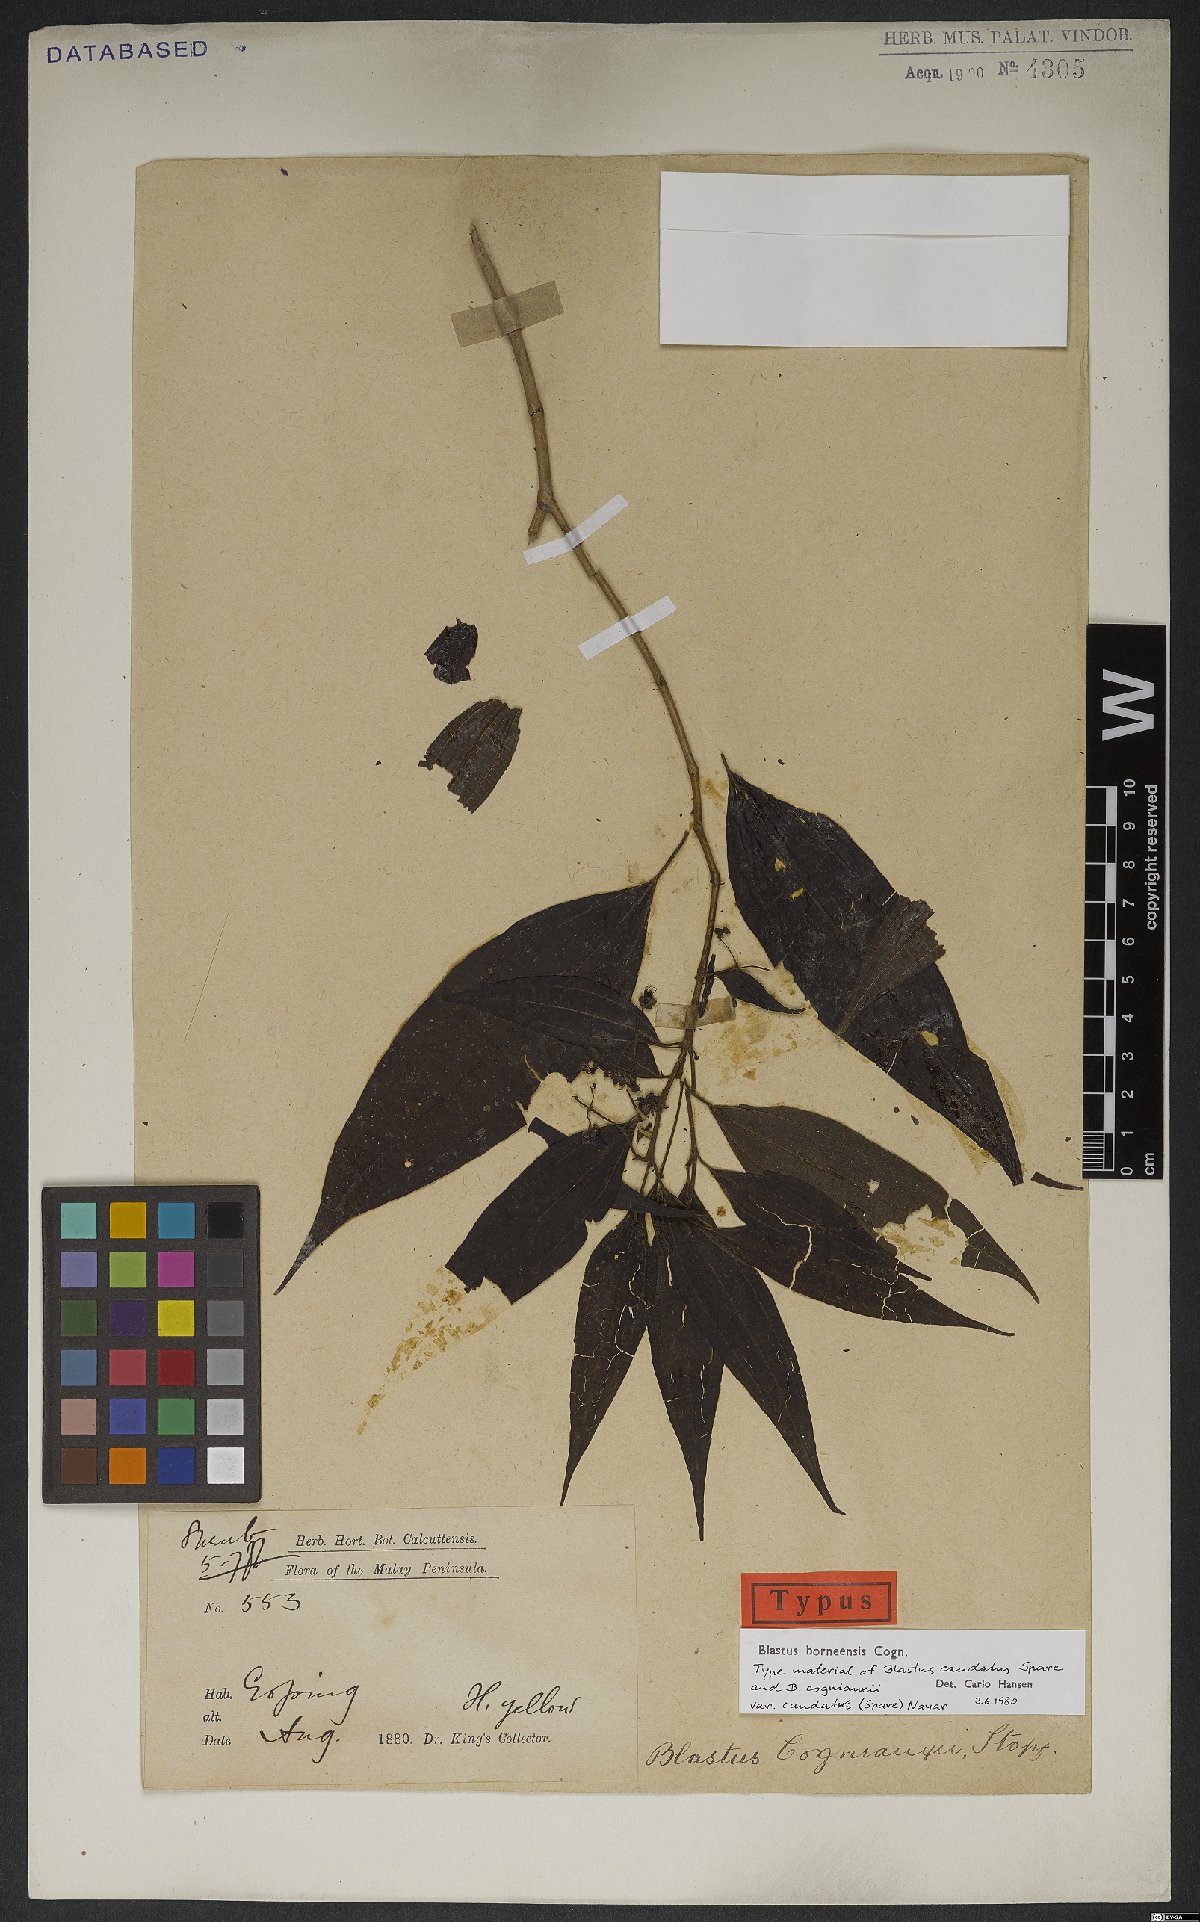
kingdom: Plantae
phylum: Tracheophyta
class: Magnoliopsida
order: Myrtales
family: Melastomataceae
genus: Blastus
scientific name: Blastus borneensis
